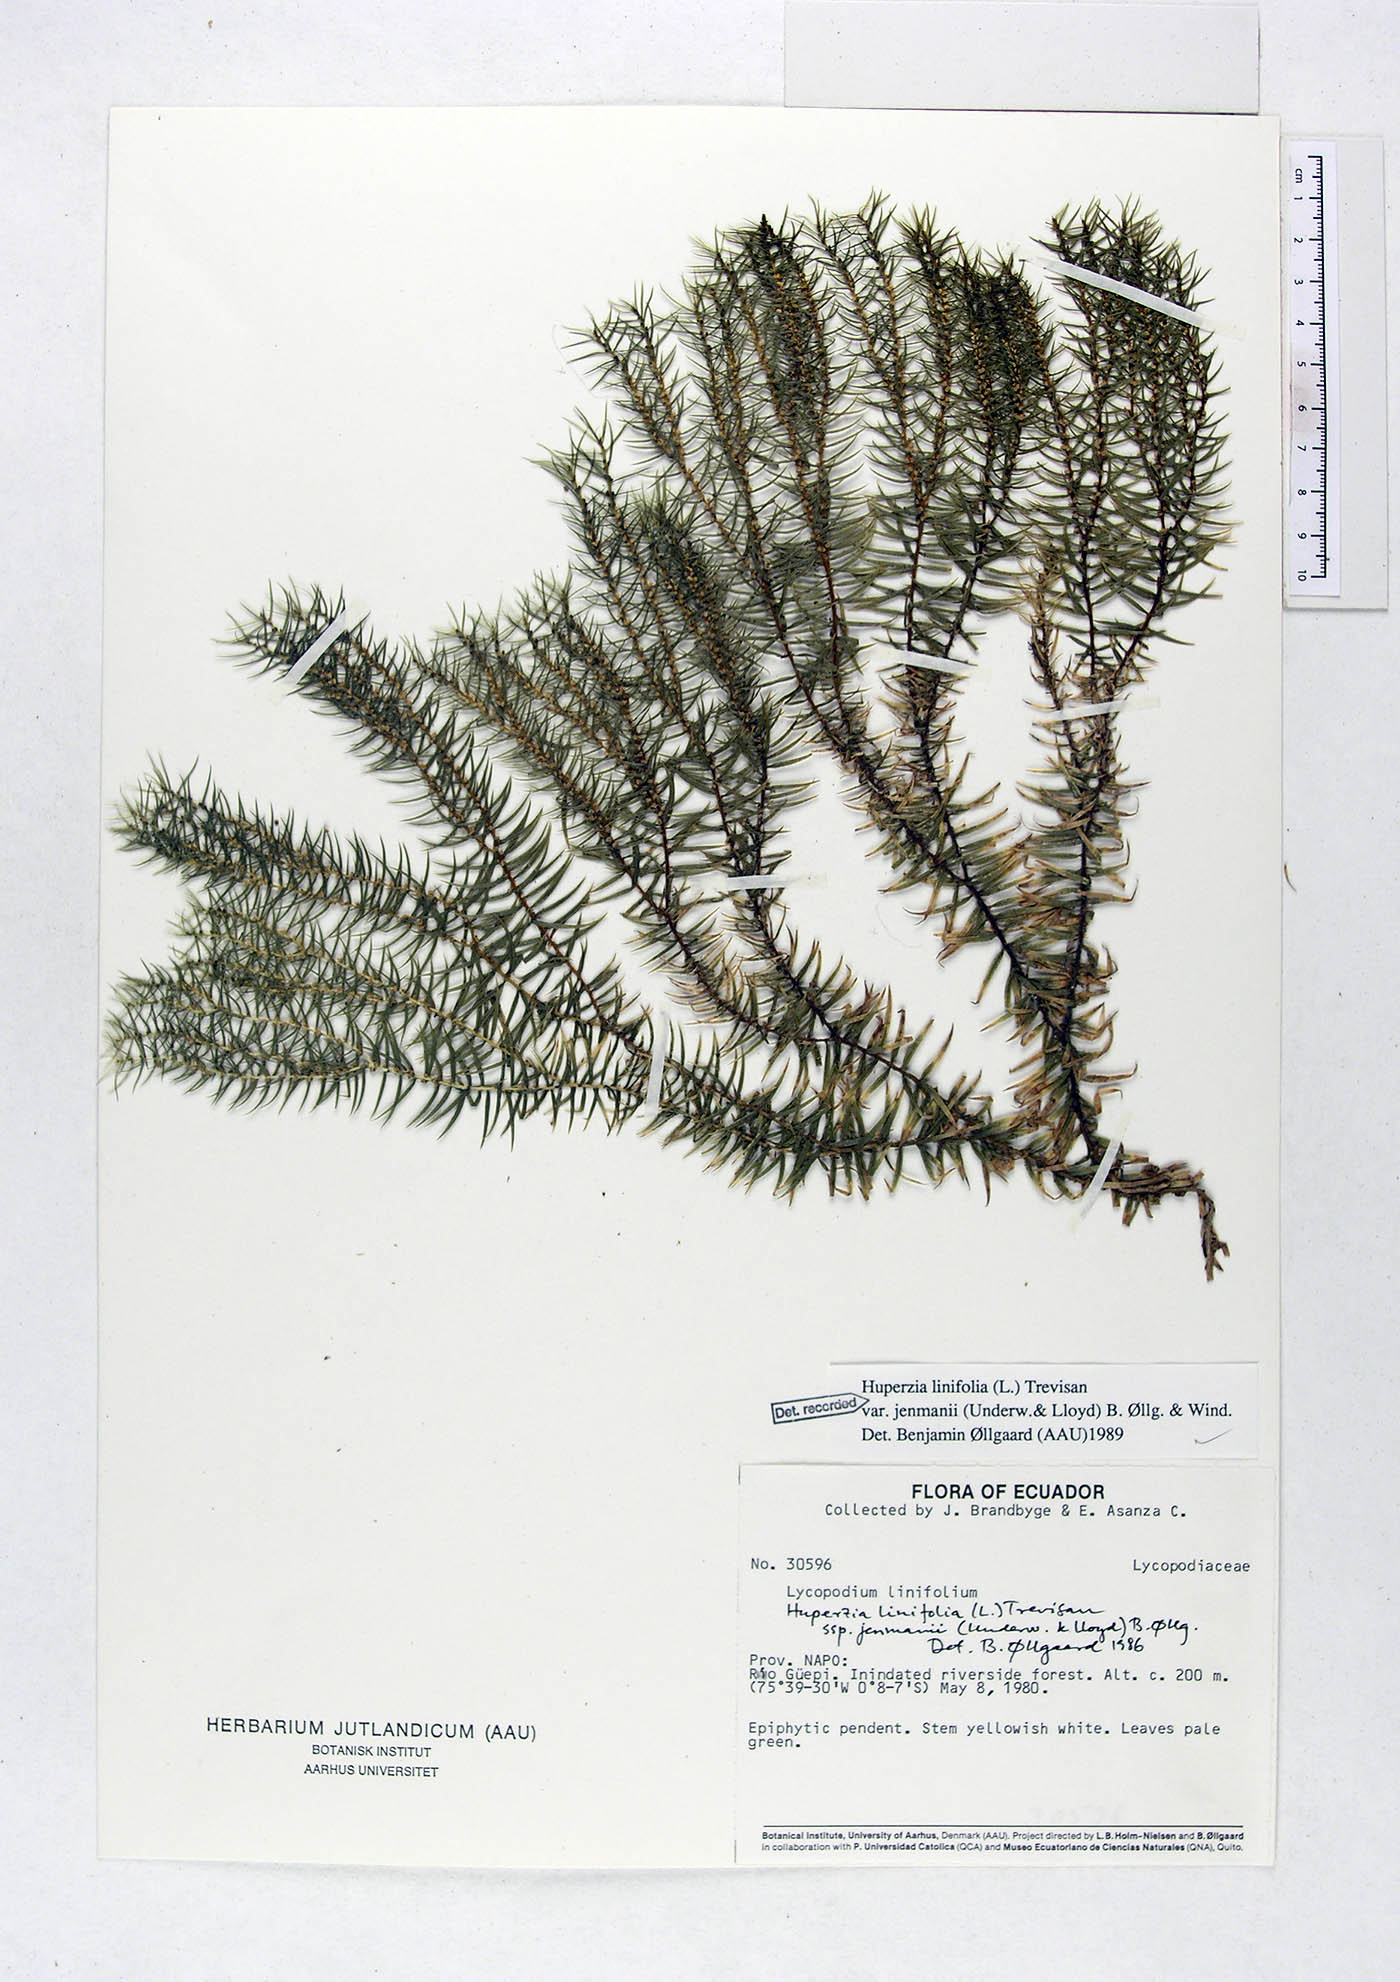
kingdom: Plantae
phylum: Tracheophyta
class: Lycopodiopsida
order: Lycopodiales
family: Lycopodiaceae
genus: Phlegmariurus
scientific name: Phlegmariurus linifolius
